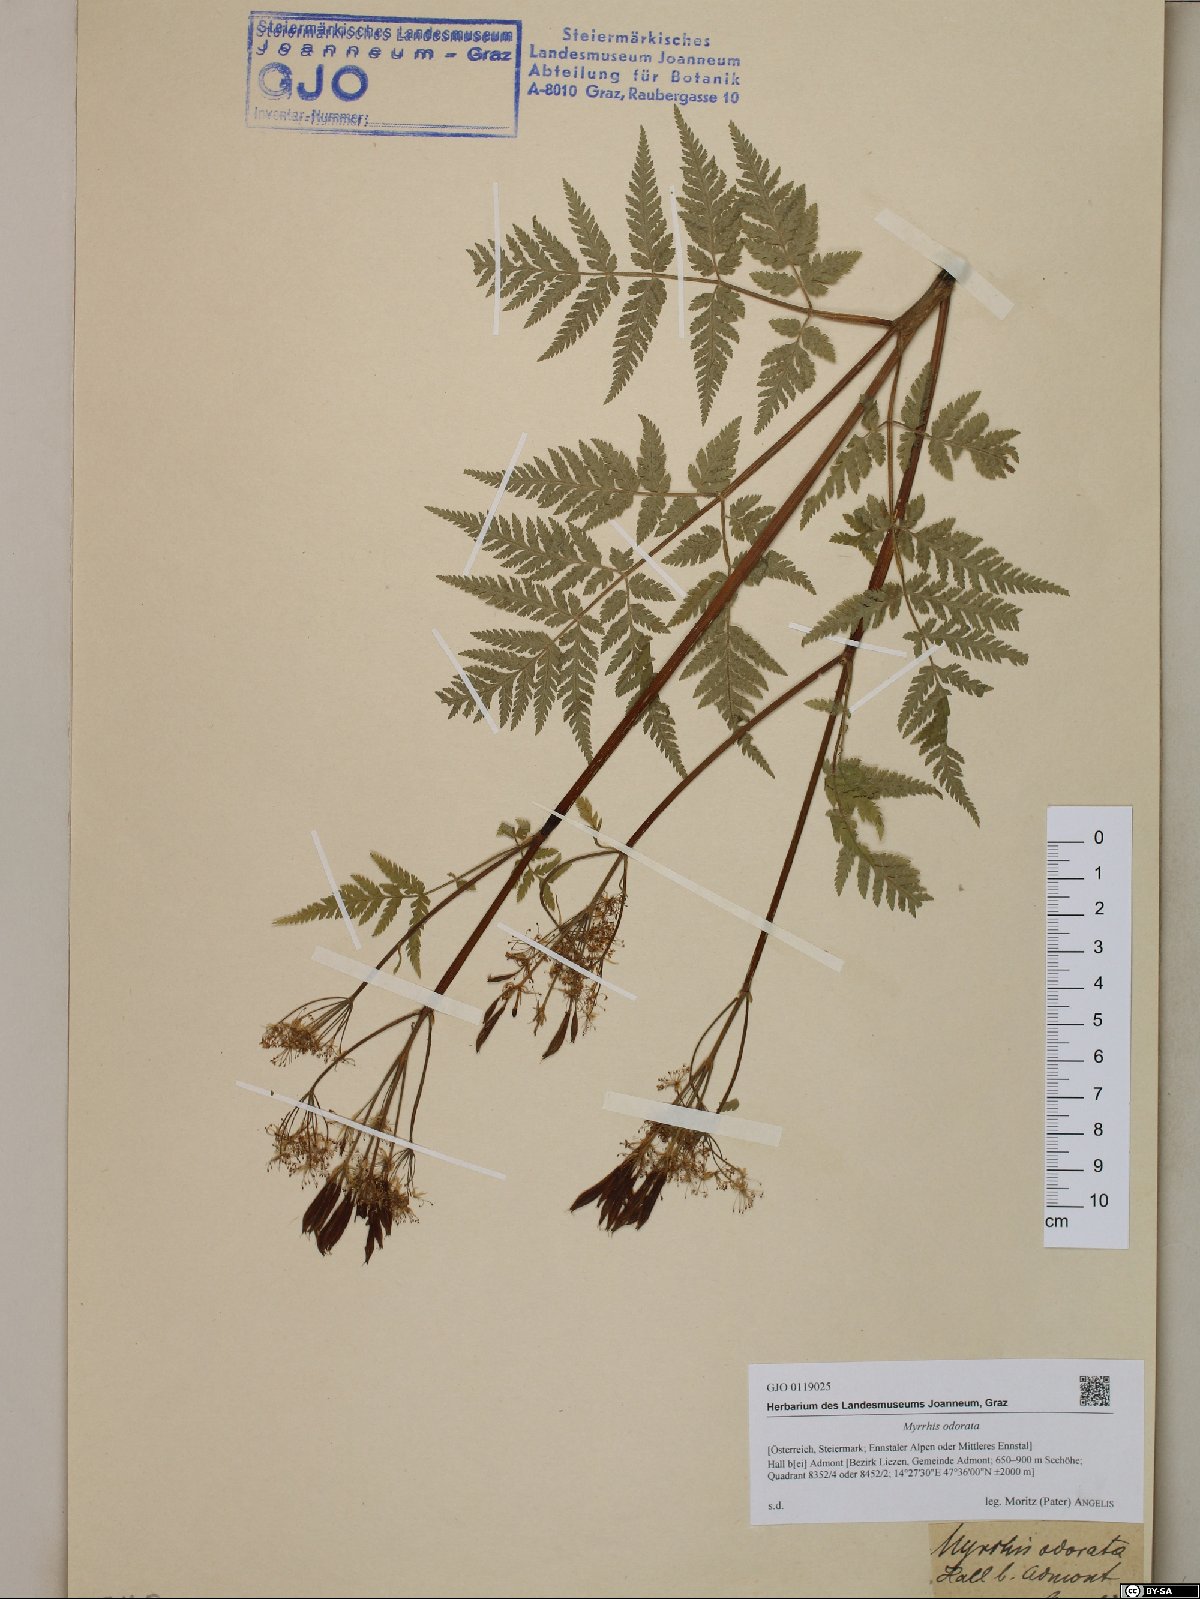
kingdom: Plantae
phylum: Tracheophyta
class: Magnoliopsida
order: Apiales
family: Apiaceae
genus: Myrrhis
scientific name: Myrrhis odorata
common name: Sweet cicely
